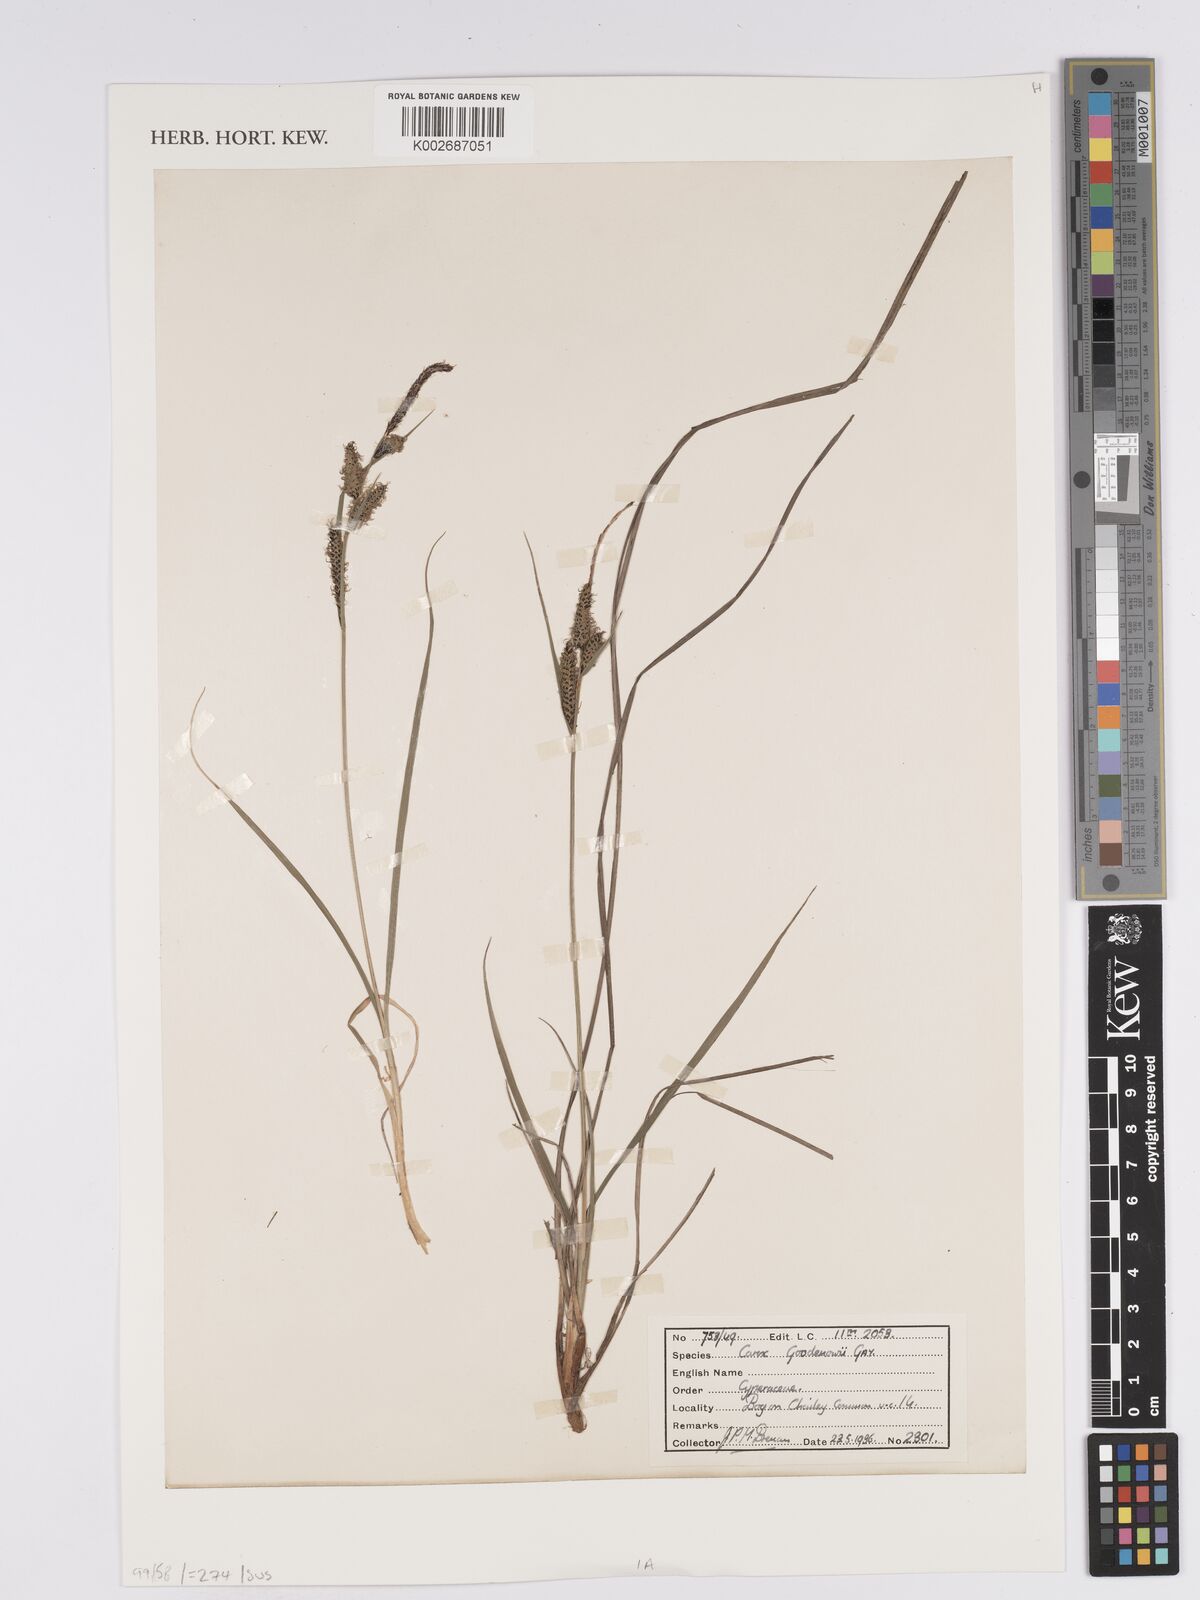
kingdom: Plantae
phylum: Tracheophyta
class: Liliopsida
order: Poales
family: Cyperaceae
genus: Carex
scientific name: Carex nigra
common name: Common sedge
